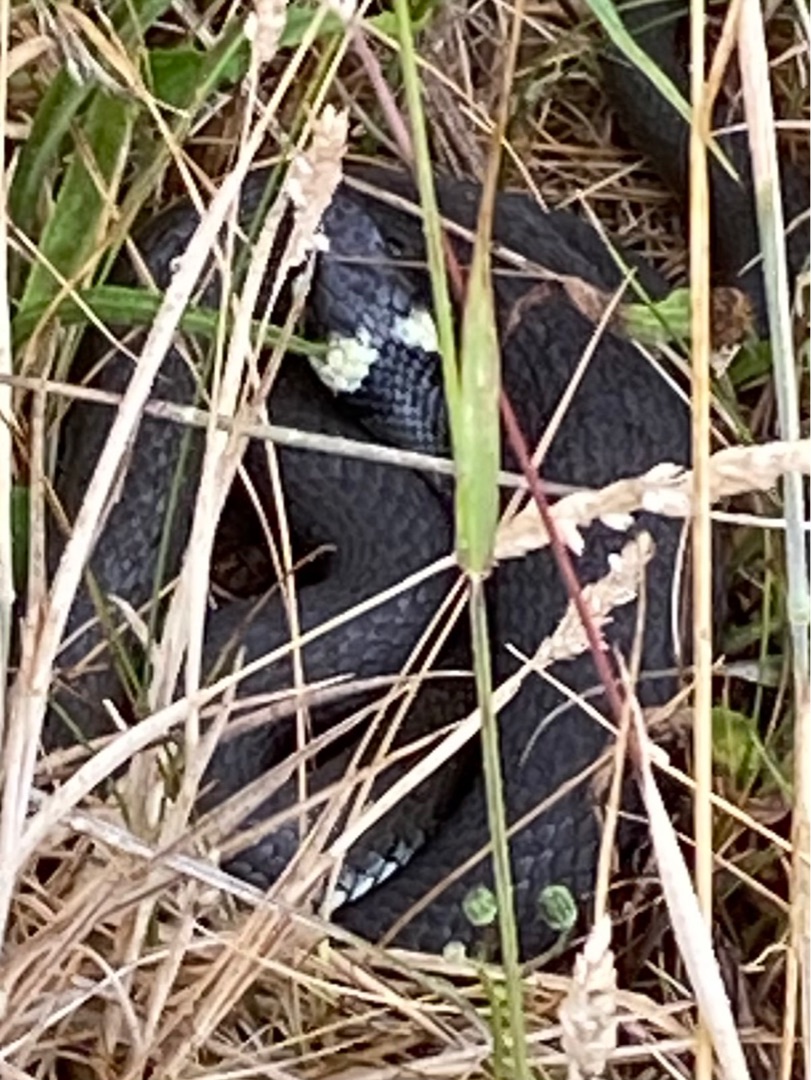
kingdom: Animalia
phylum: Chordata
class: Squamata
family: Colubridae
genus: Natrix
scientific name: Natrix natrix
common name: Snog
